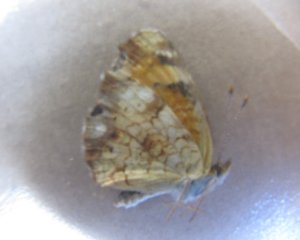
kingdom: Animalia
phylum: Arthropoda
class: Insecta
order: Lepidoptera
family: Nymphalidae
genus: Phyciodes
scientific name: Phyciodes tharos
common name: Northern Crescent
